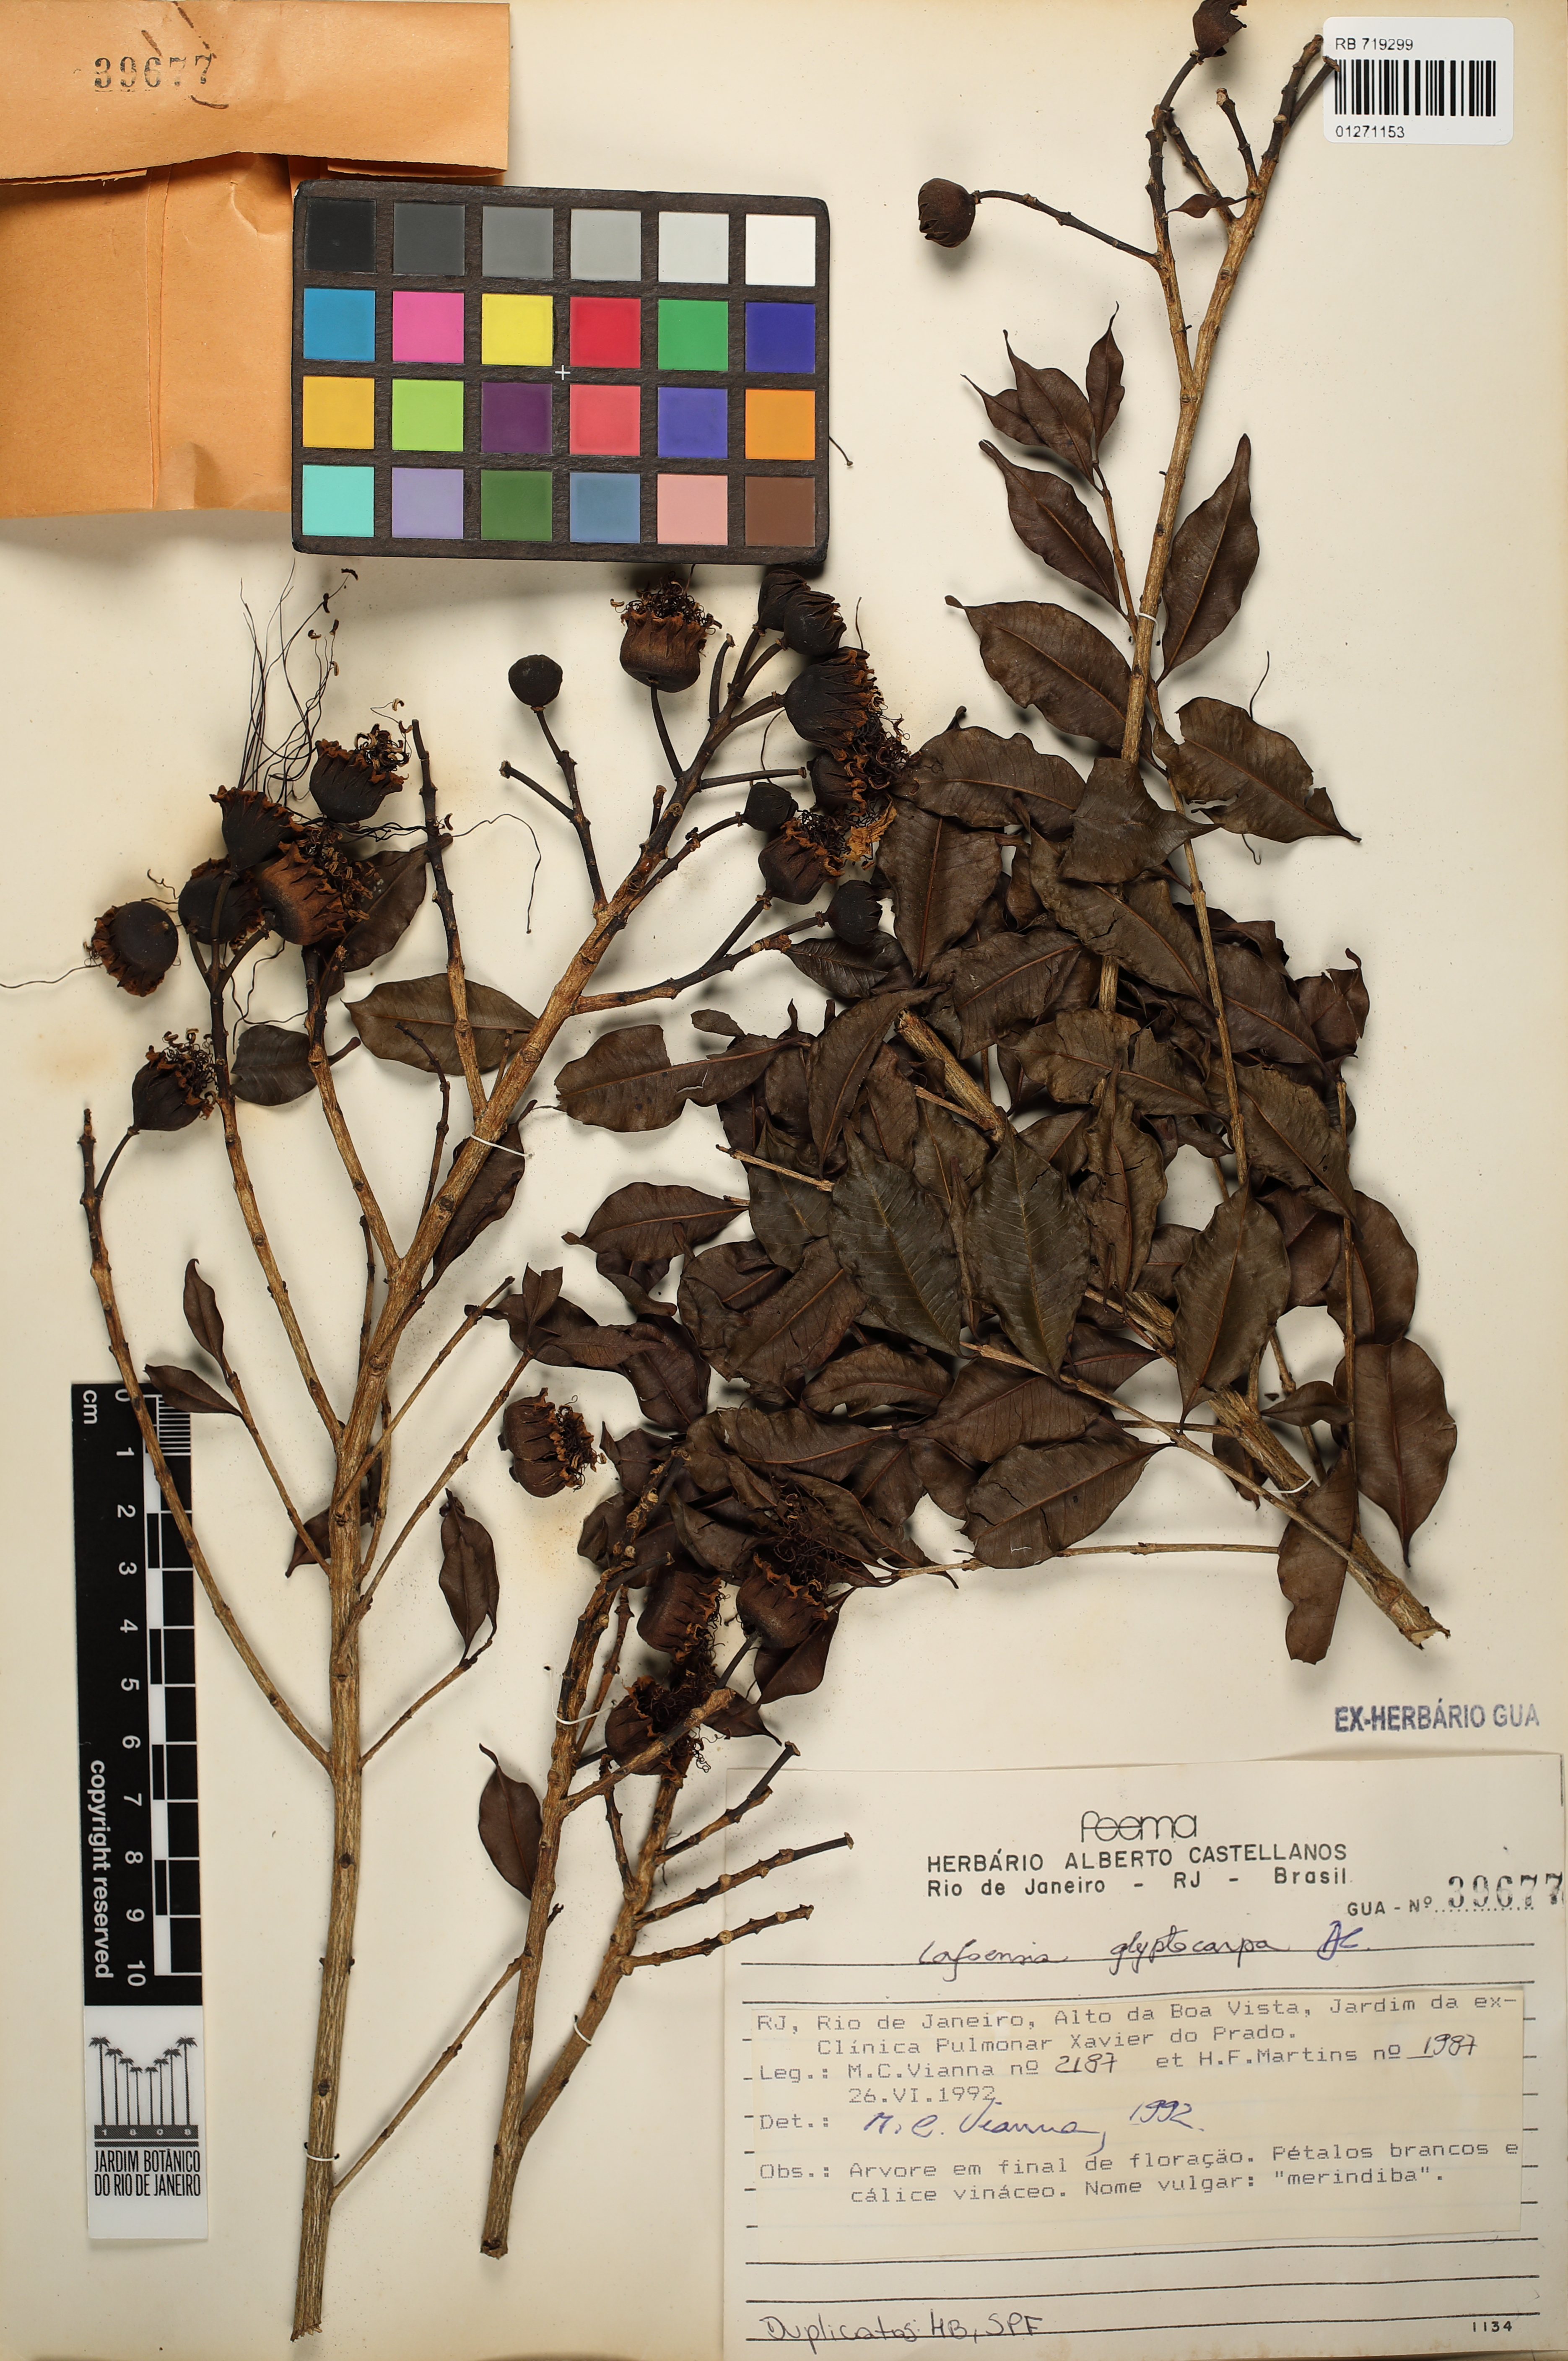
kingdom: Plantae
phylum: Tracheophyta
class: Magnoliopsida
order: Myrtales
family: Lythraceae
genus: Lafoensia
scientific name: Lafoensia glyptocarpa
